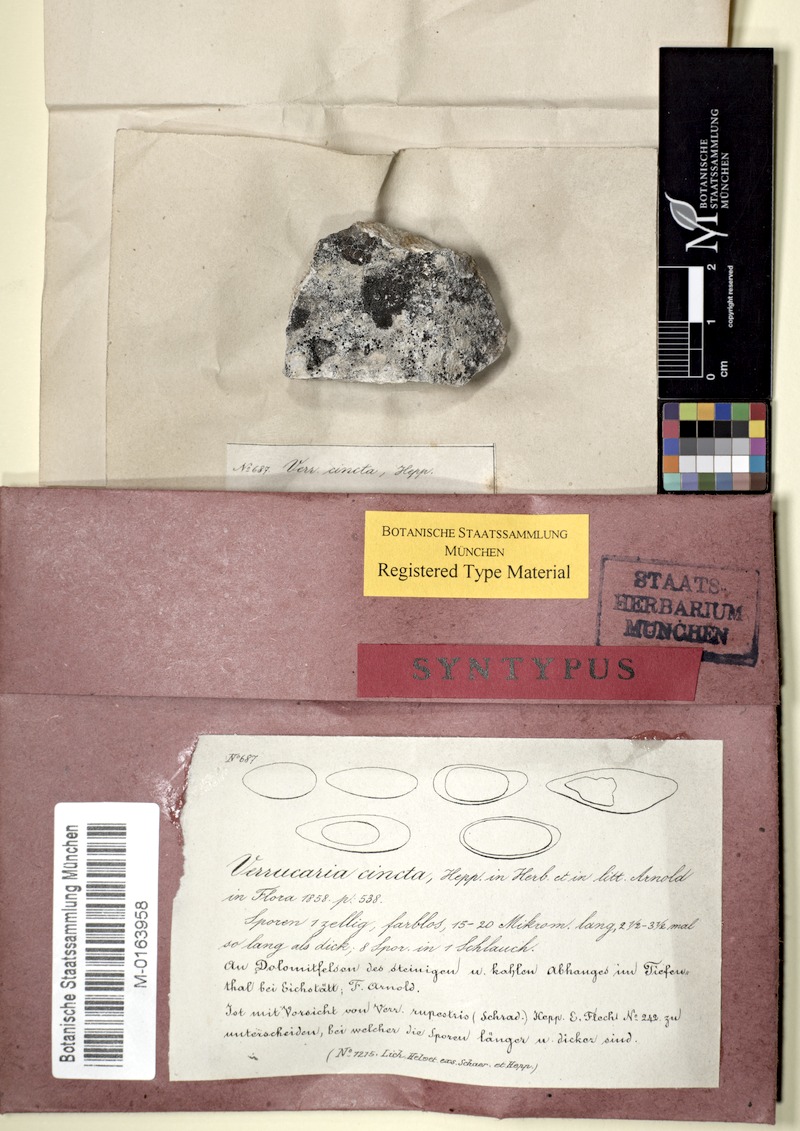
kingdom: Fungi
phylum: Ascomycota
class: Eurotiomycetes
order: Verrucariales
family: Verrucariaceae
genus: Verrucaria
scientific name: Verrucaria cincta
